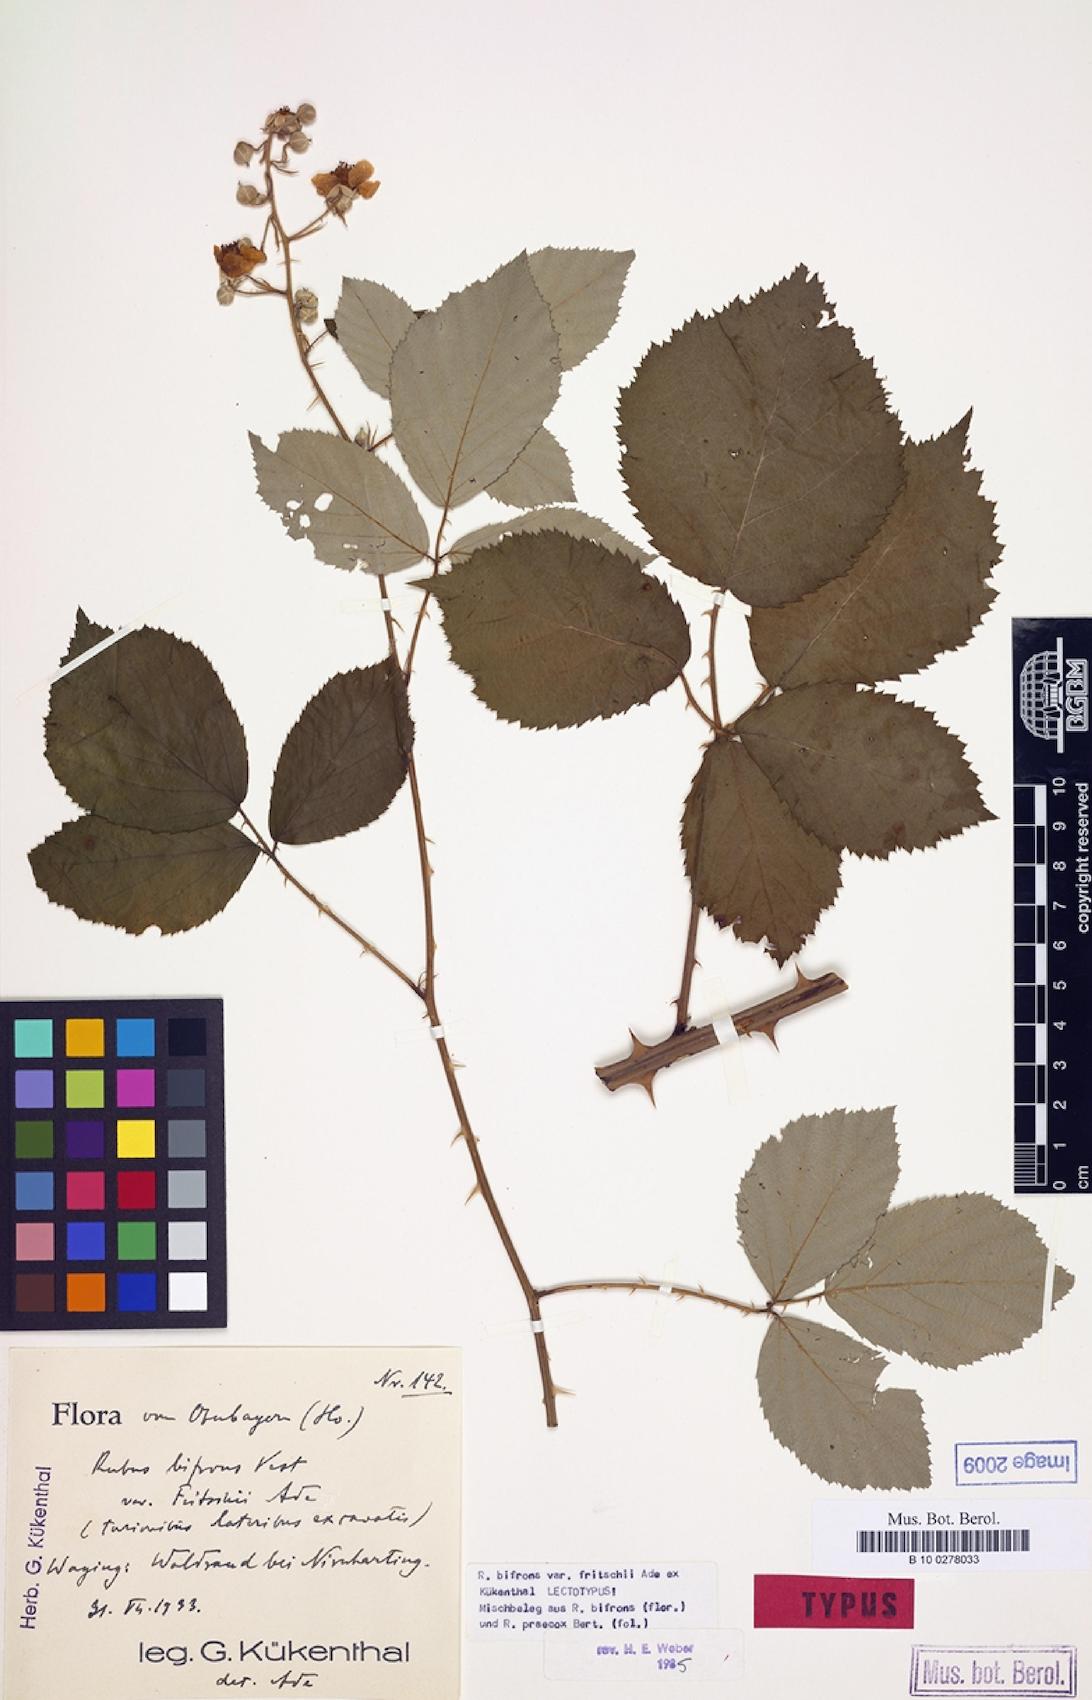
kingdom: Plantae
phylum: Tracheophyta
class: Magnoliopsida
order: Rosales
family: Rosaceae
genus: Rubus
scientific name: Rubus praecox
